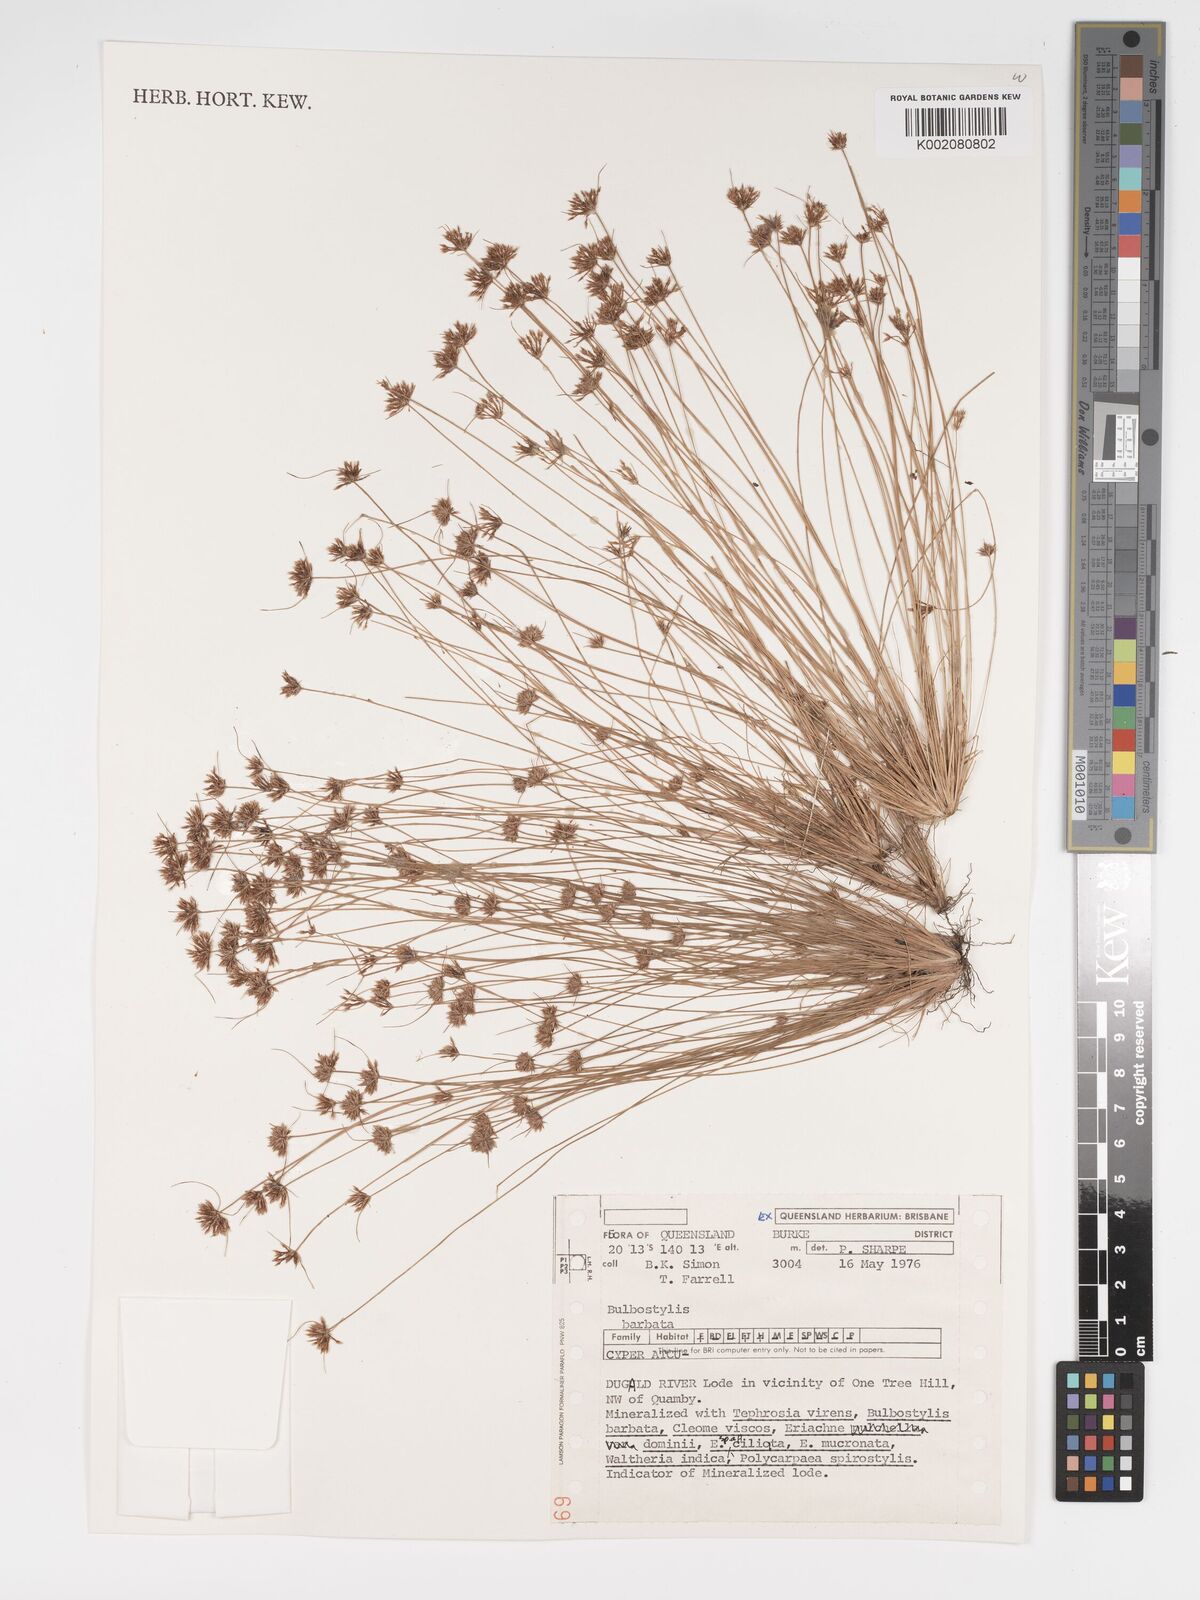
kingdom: Plantae
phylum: Tracheophyta
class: Liliopsida
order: Poales
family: Cyperaceae
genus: Bulbostylis
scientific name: Bulbostylis barbata
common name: Watergrass
